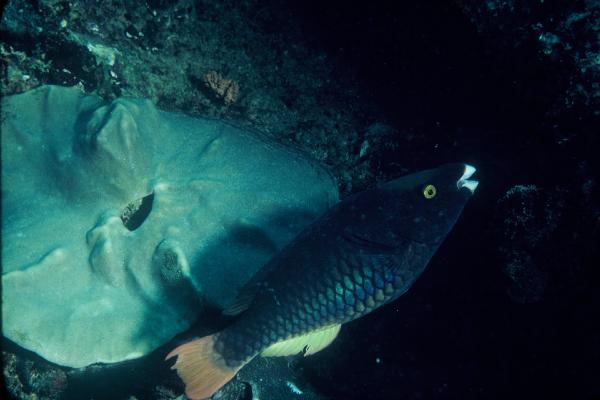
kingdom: Animalia
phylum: Chordata
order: Perciformes
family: Scaridae
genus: Scarus
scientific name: Scarus tricolor
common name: Tricolour parrotfish
